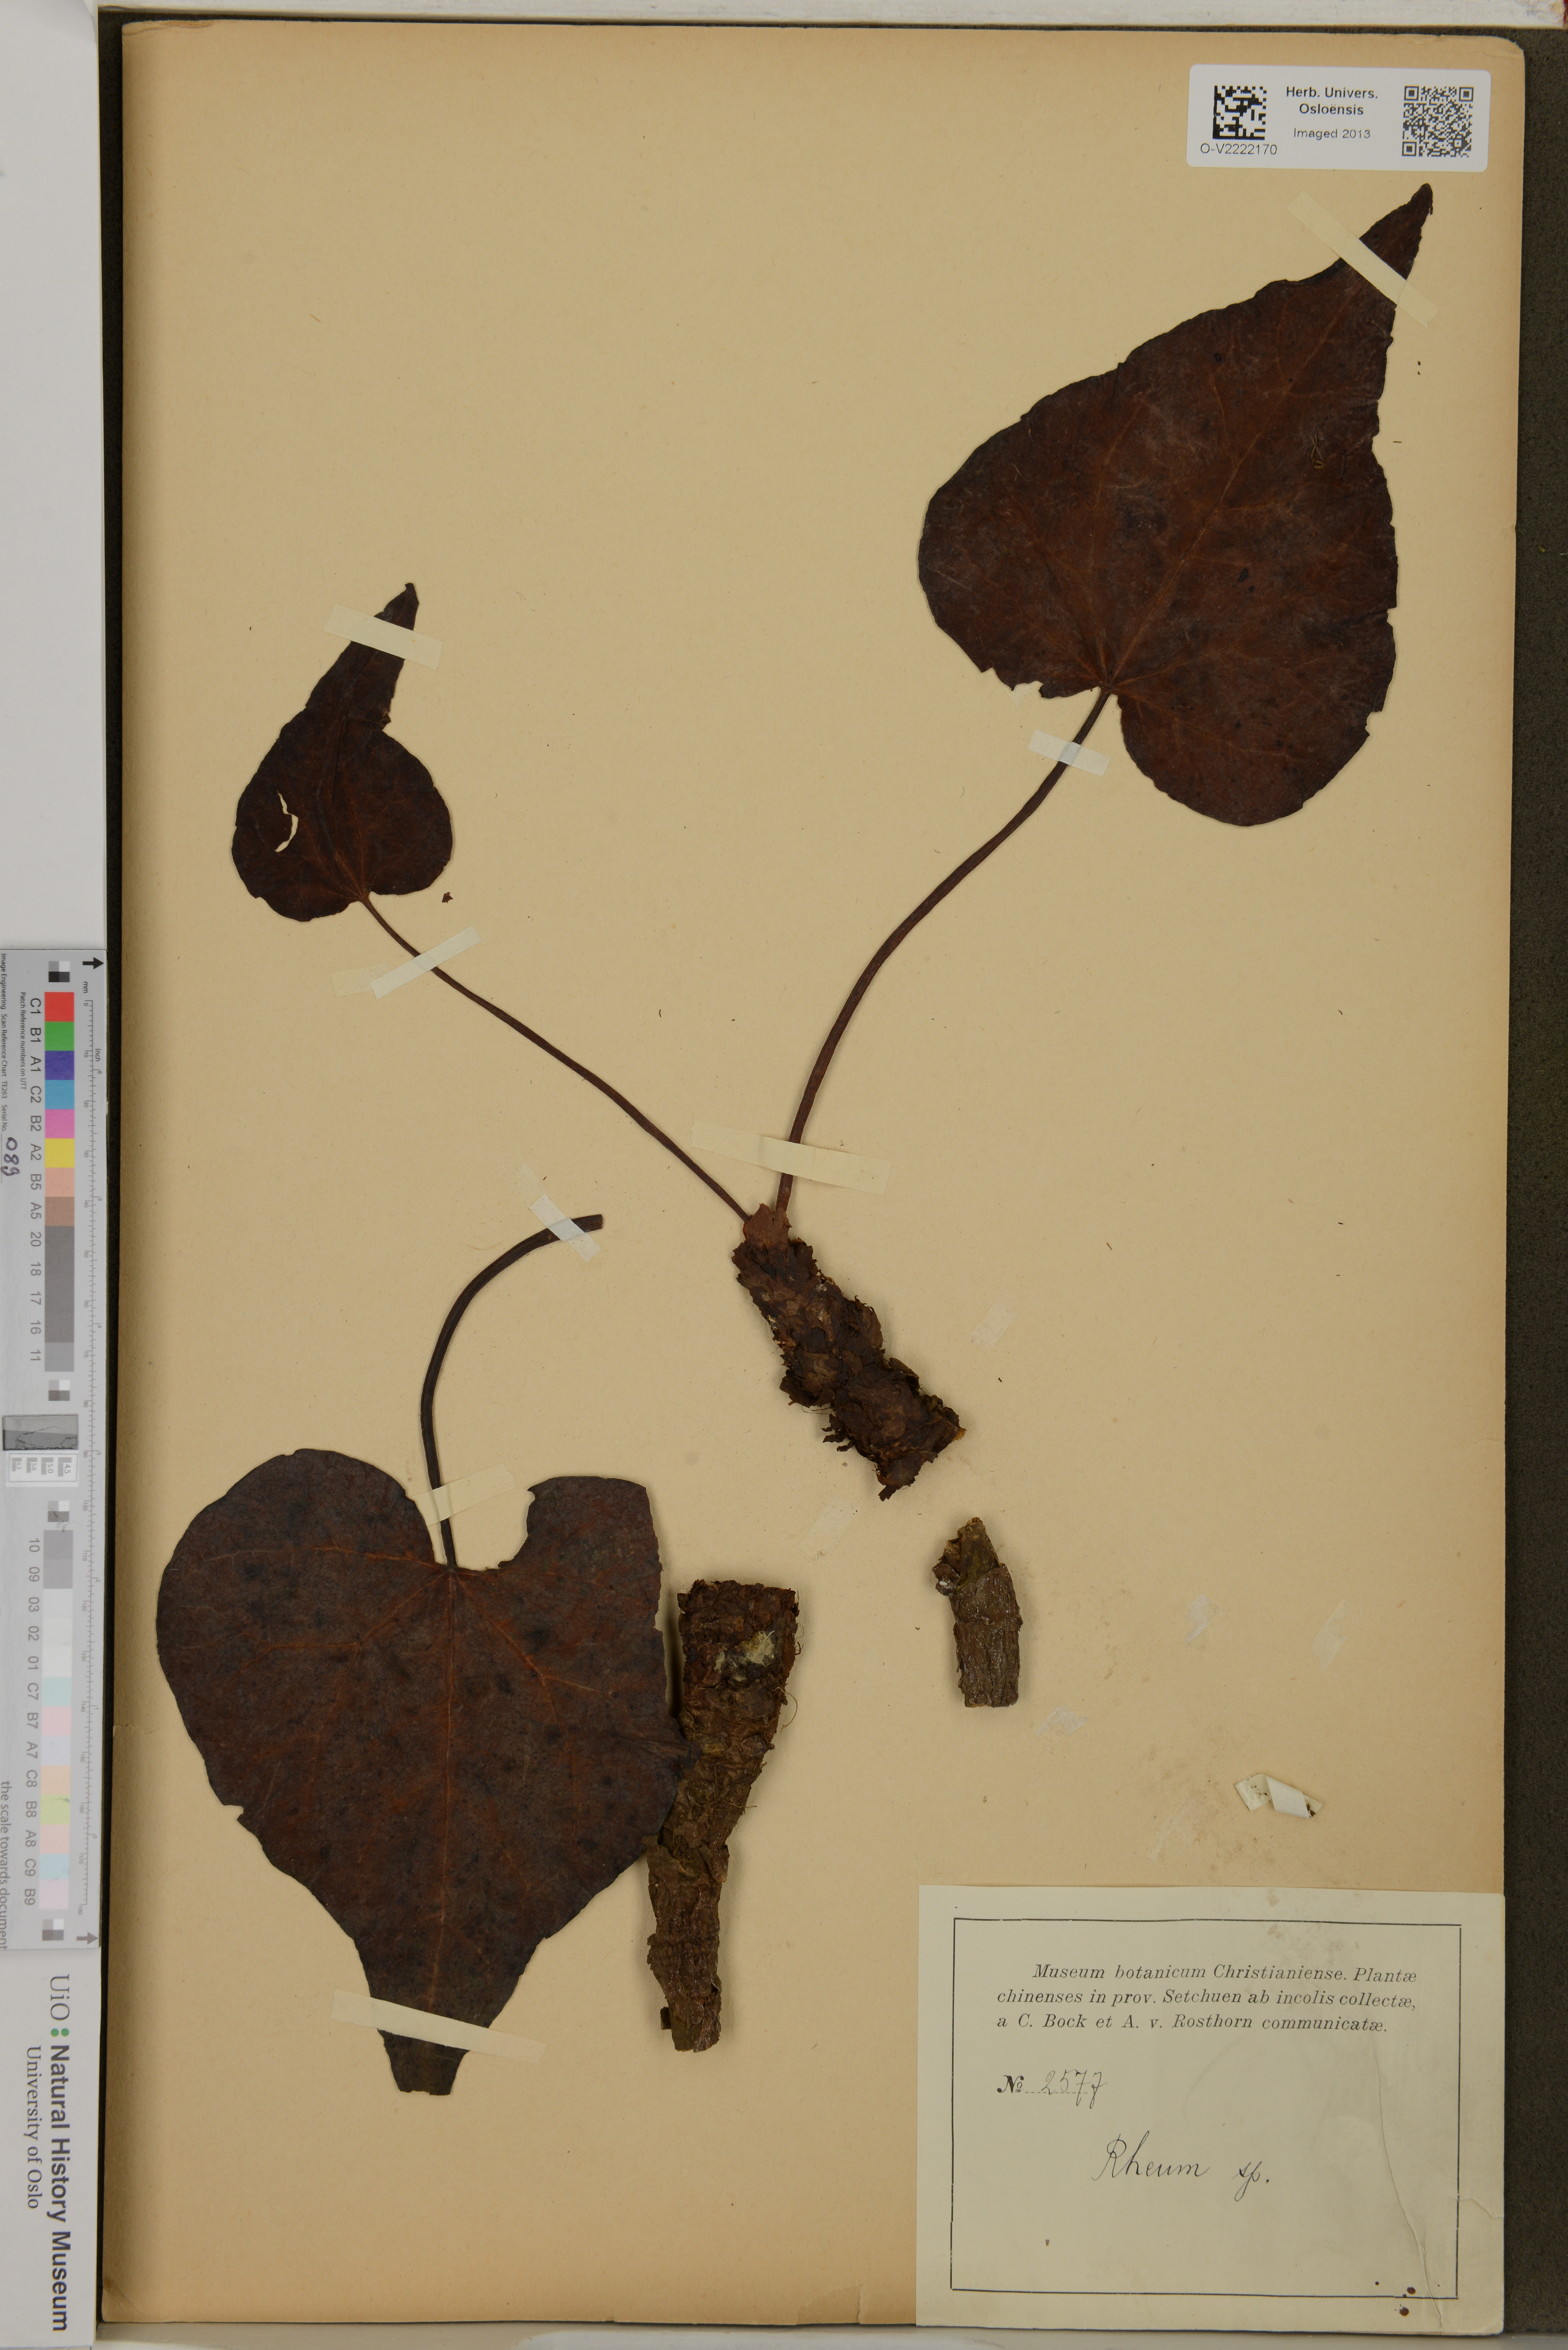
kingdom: Plantae
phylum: Tracheophyta
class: Magnoliopsida
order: Caryophyllales
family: Polygonaceae
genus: Rumex
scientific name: Rumex
